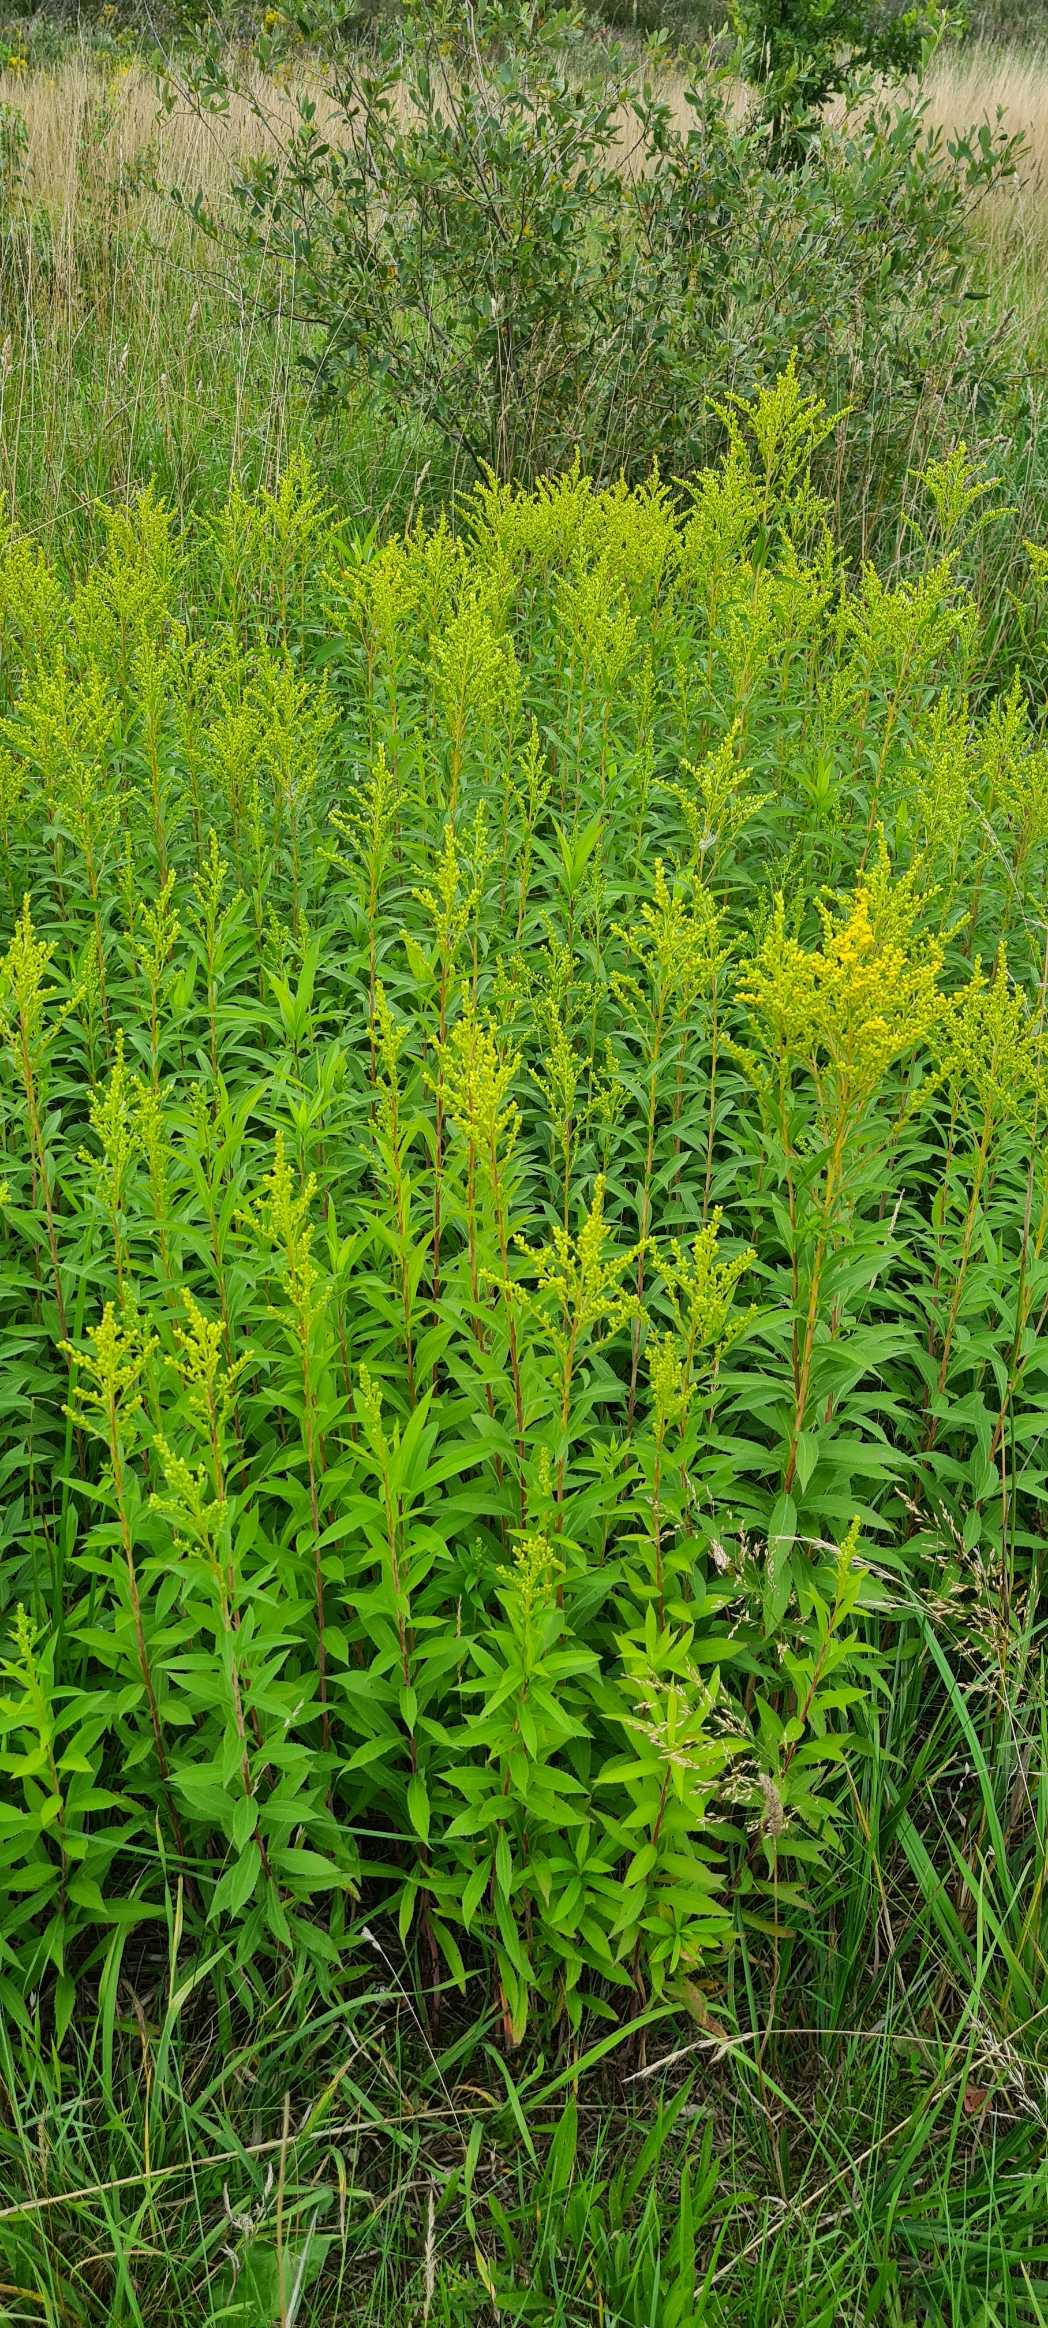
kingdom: Plantae
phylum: Tracheophyta
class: Magnoliopsida
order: Asterales
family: Asteraceae
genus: Solidago
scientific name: Solidago gigantea
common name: Sildig gyldenris
